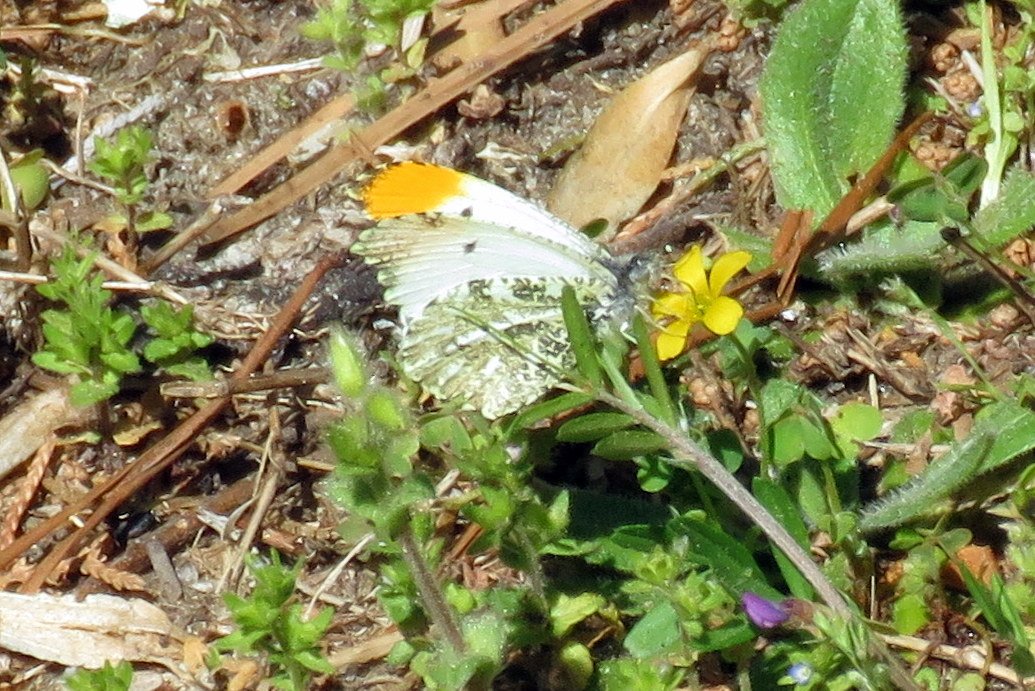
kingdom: Animalia
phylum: Arthropoda
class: Insecta
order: Lepidoptera
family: Pieridae
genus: Anthocharis
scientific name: Anthocharis midea
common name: Falcate Orangetip
